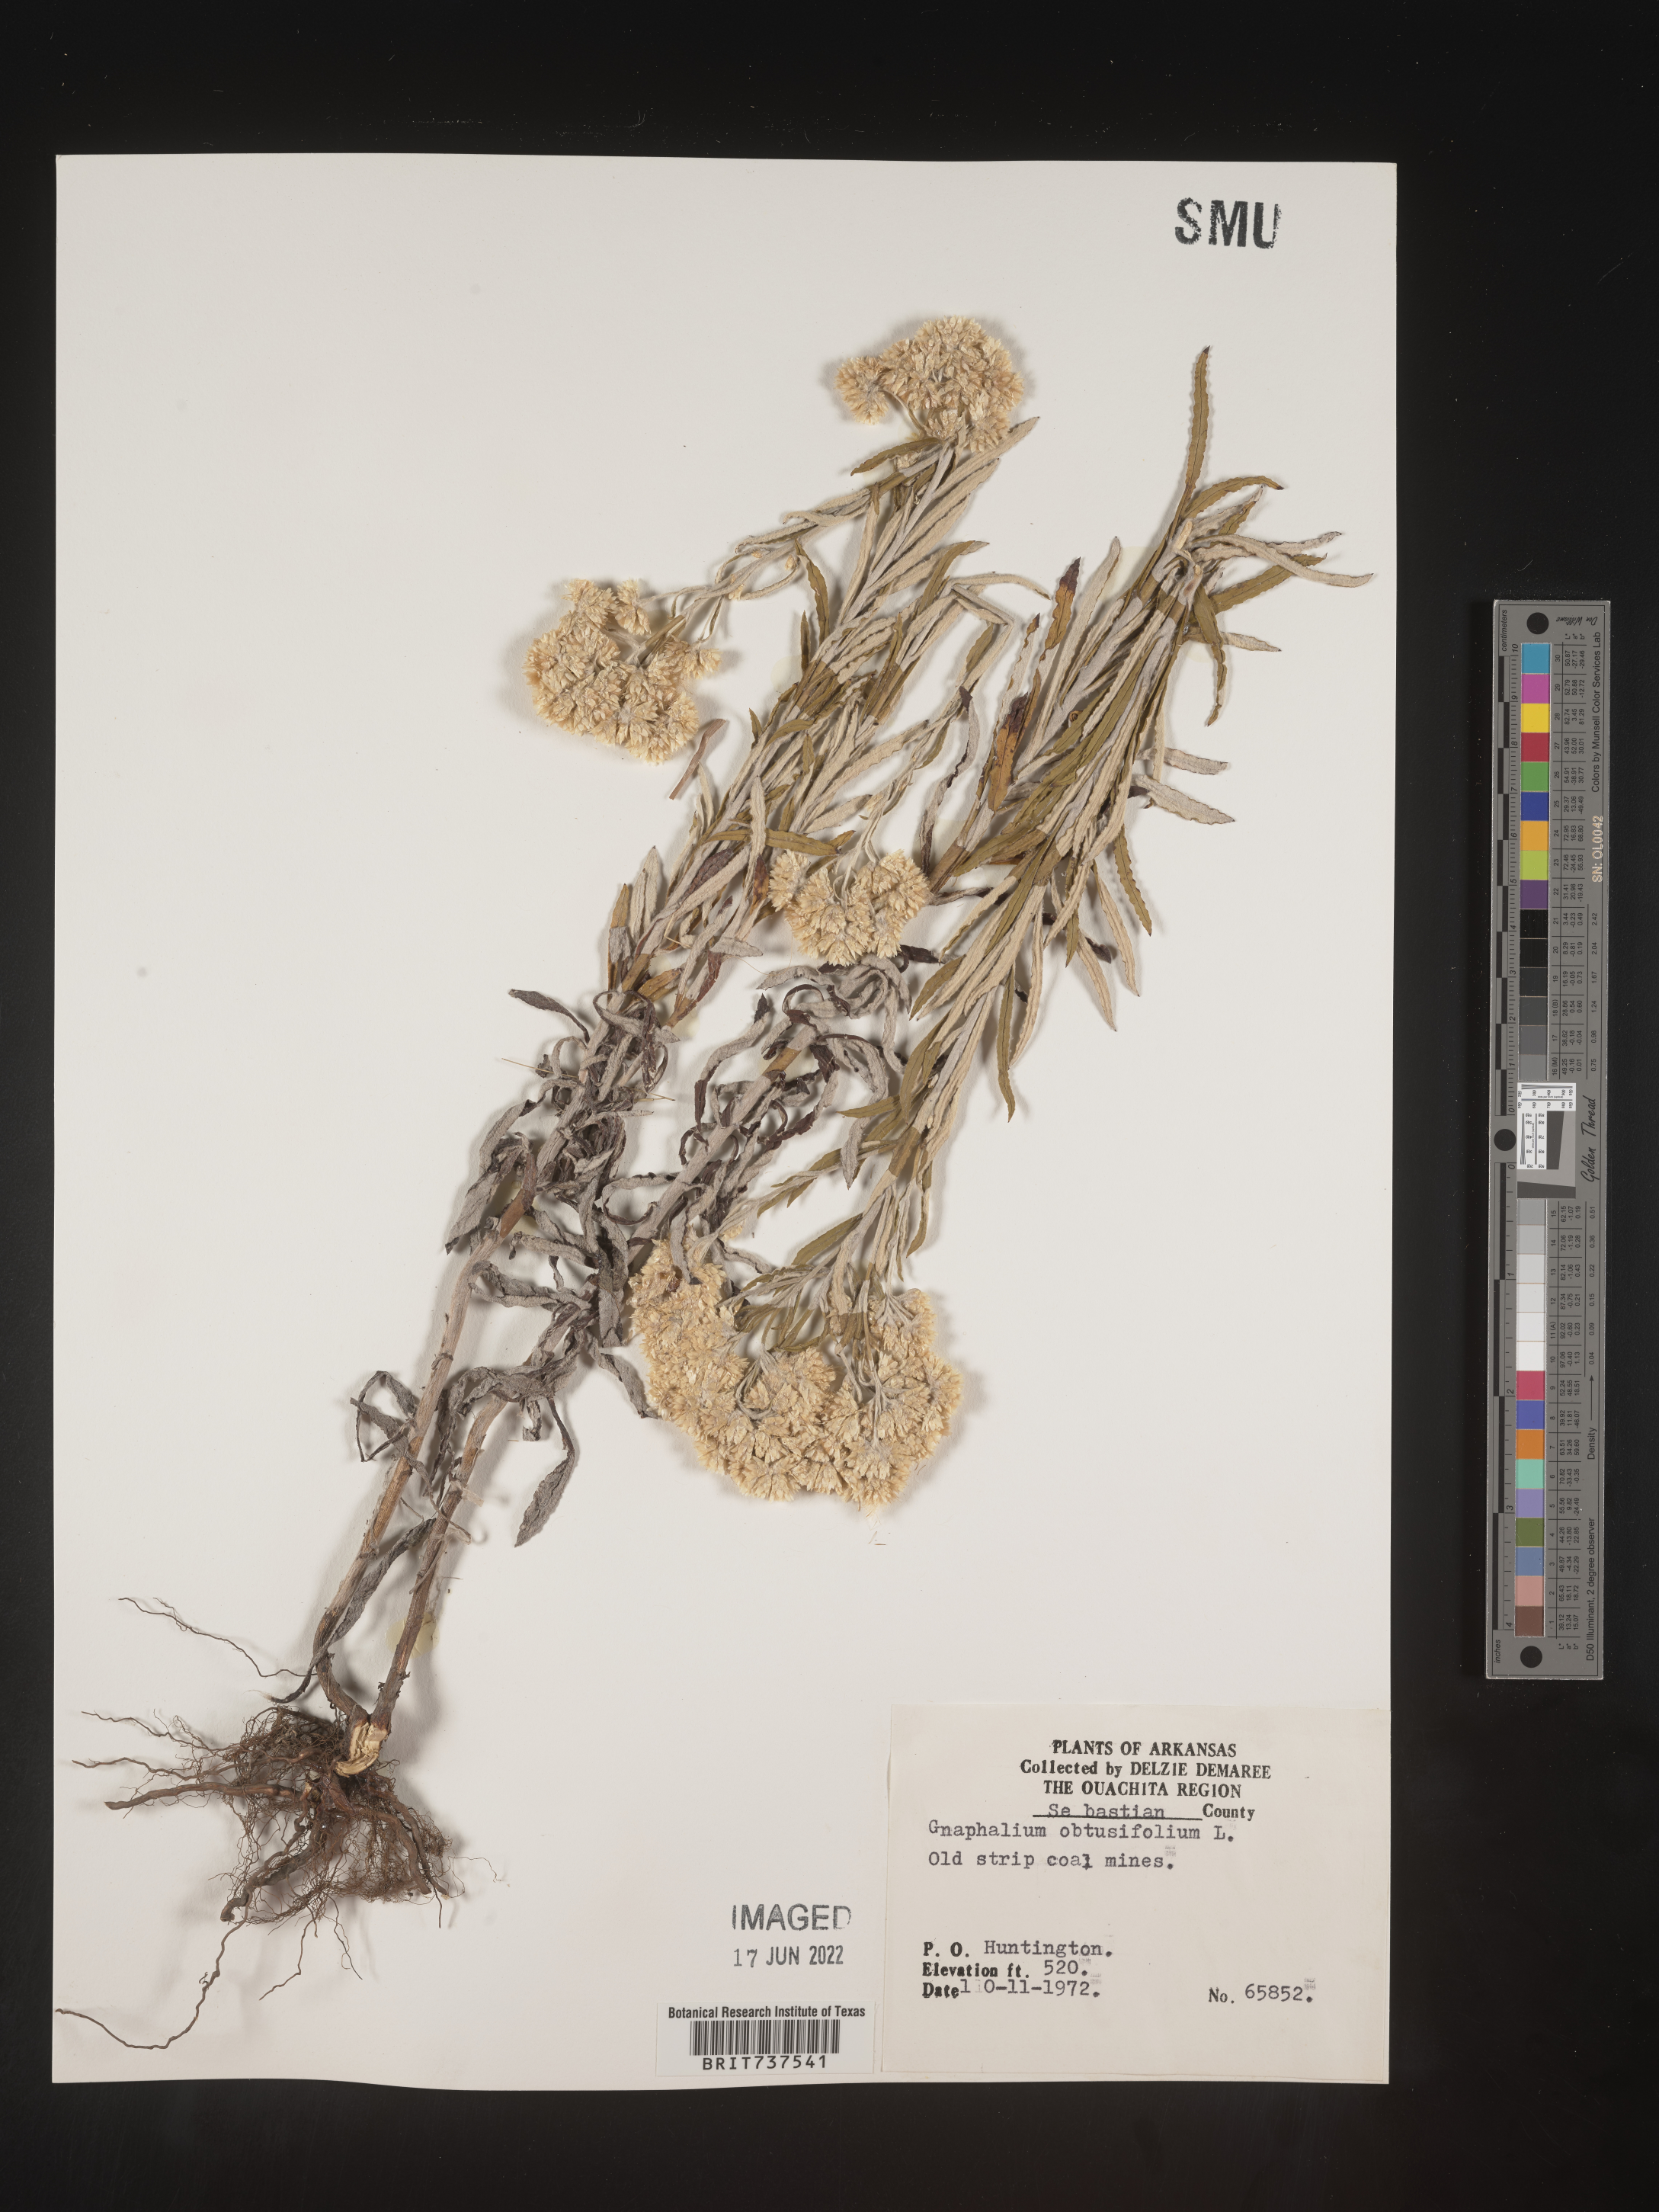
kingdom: Plantae
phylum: Tracheophyta
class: Magnoliopsida
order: Asterales
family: Asteraceae
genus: Pseudognaphalium
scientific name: Pseudognaphalium obtusifolium
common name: Eastern rabbit-tobacco
